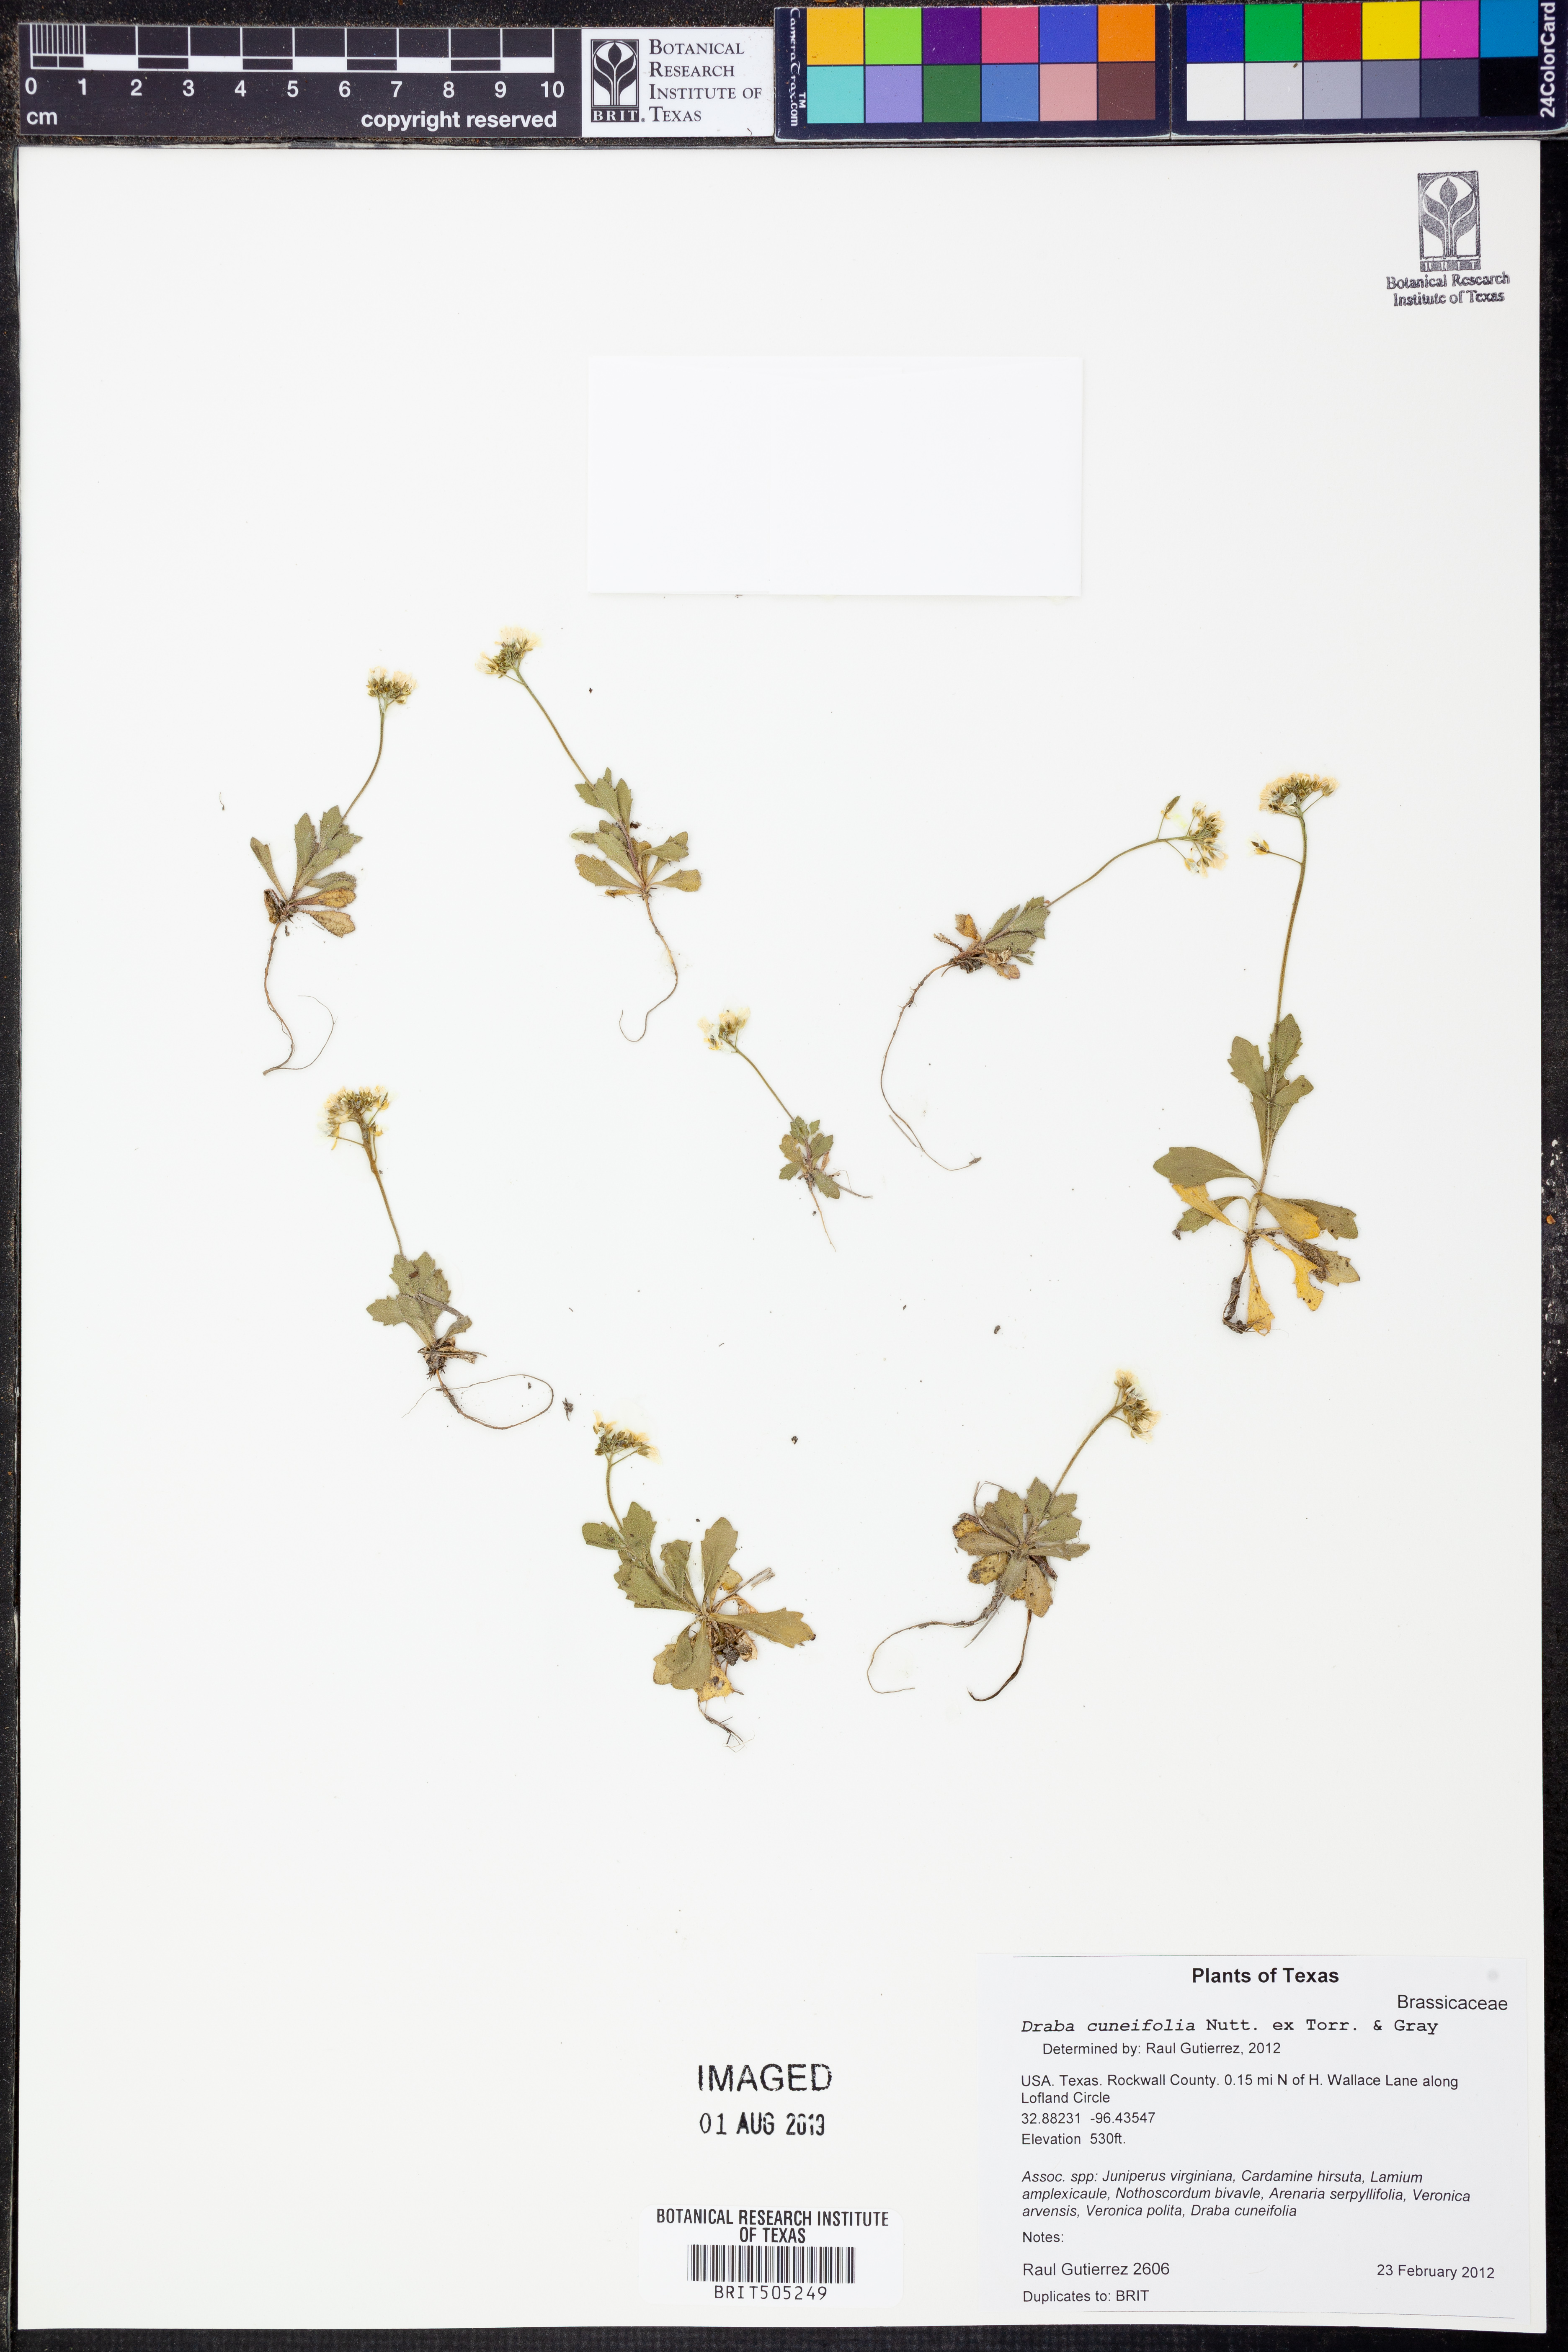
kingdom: Plantae
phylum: Tracheophyta
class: Magnoliopsida
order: Brassicales
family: Brassicaceae
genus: Tomostima
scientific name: Tomostima cuneifolia
